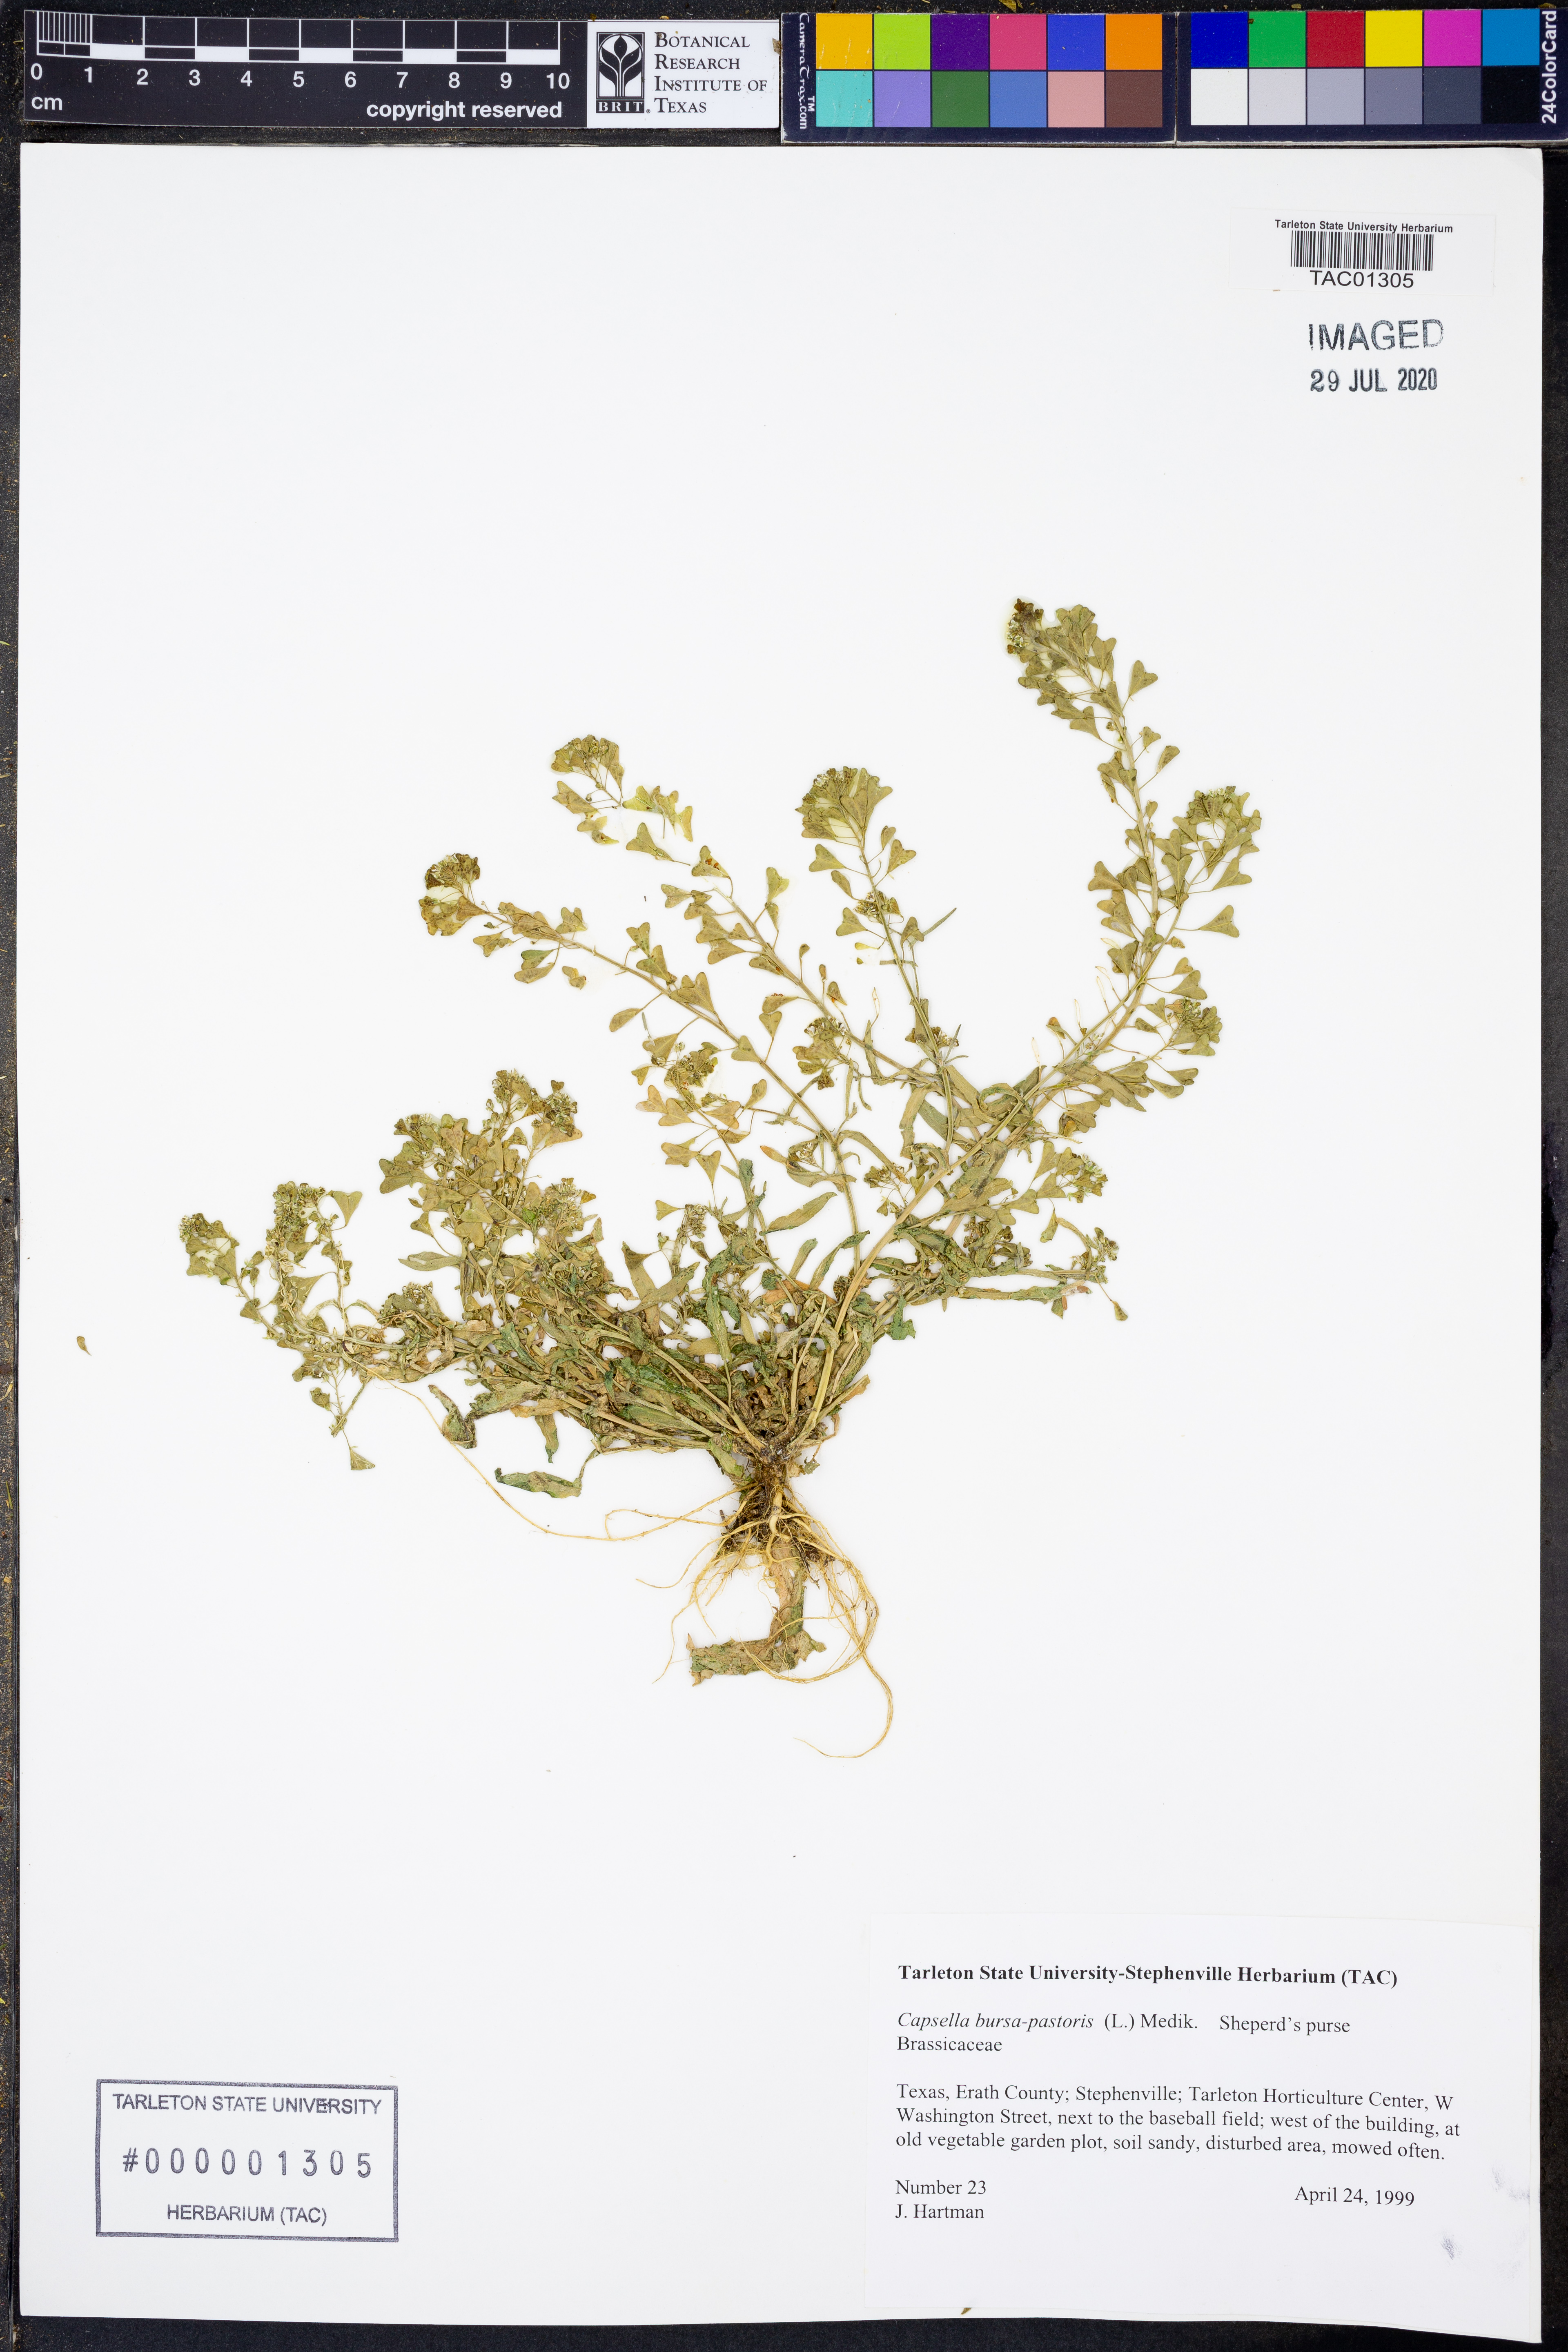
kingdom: Plantae
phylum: Tracheophyta
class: Magnoliopsida
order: Brassicales
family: Brassicaceae
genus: Capsella
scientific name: Capsella bursa-pastoris
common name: Shepherd's purse
